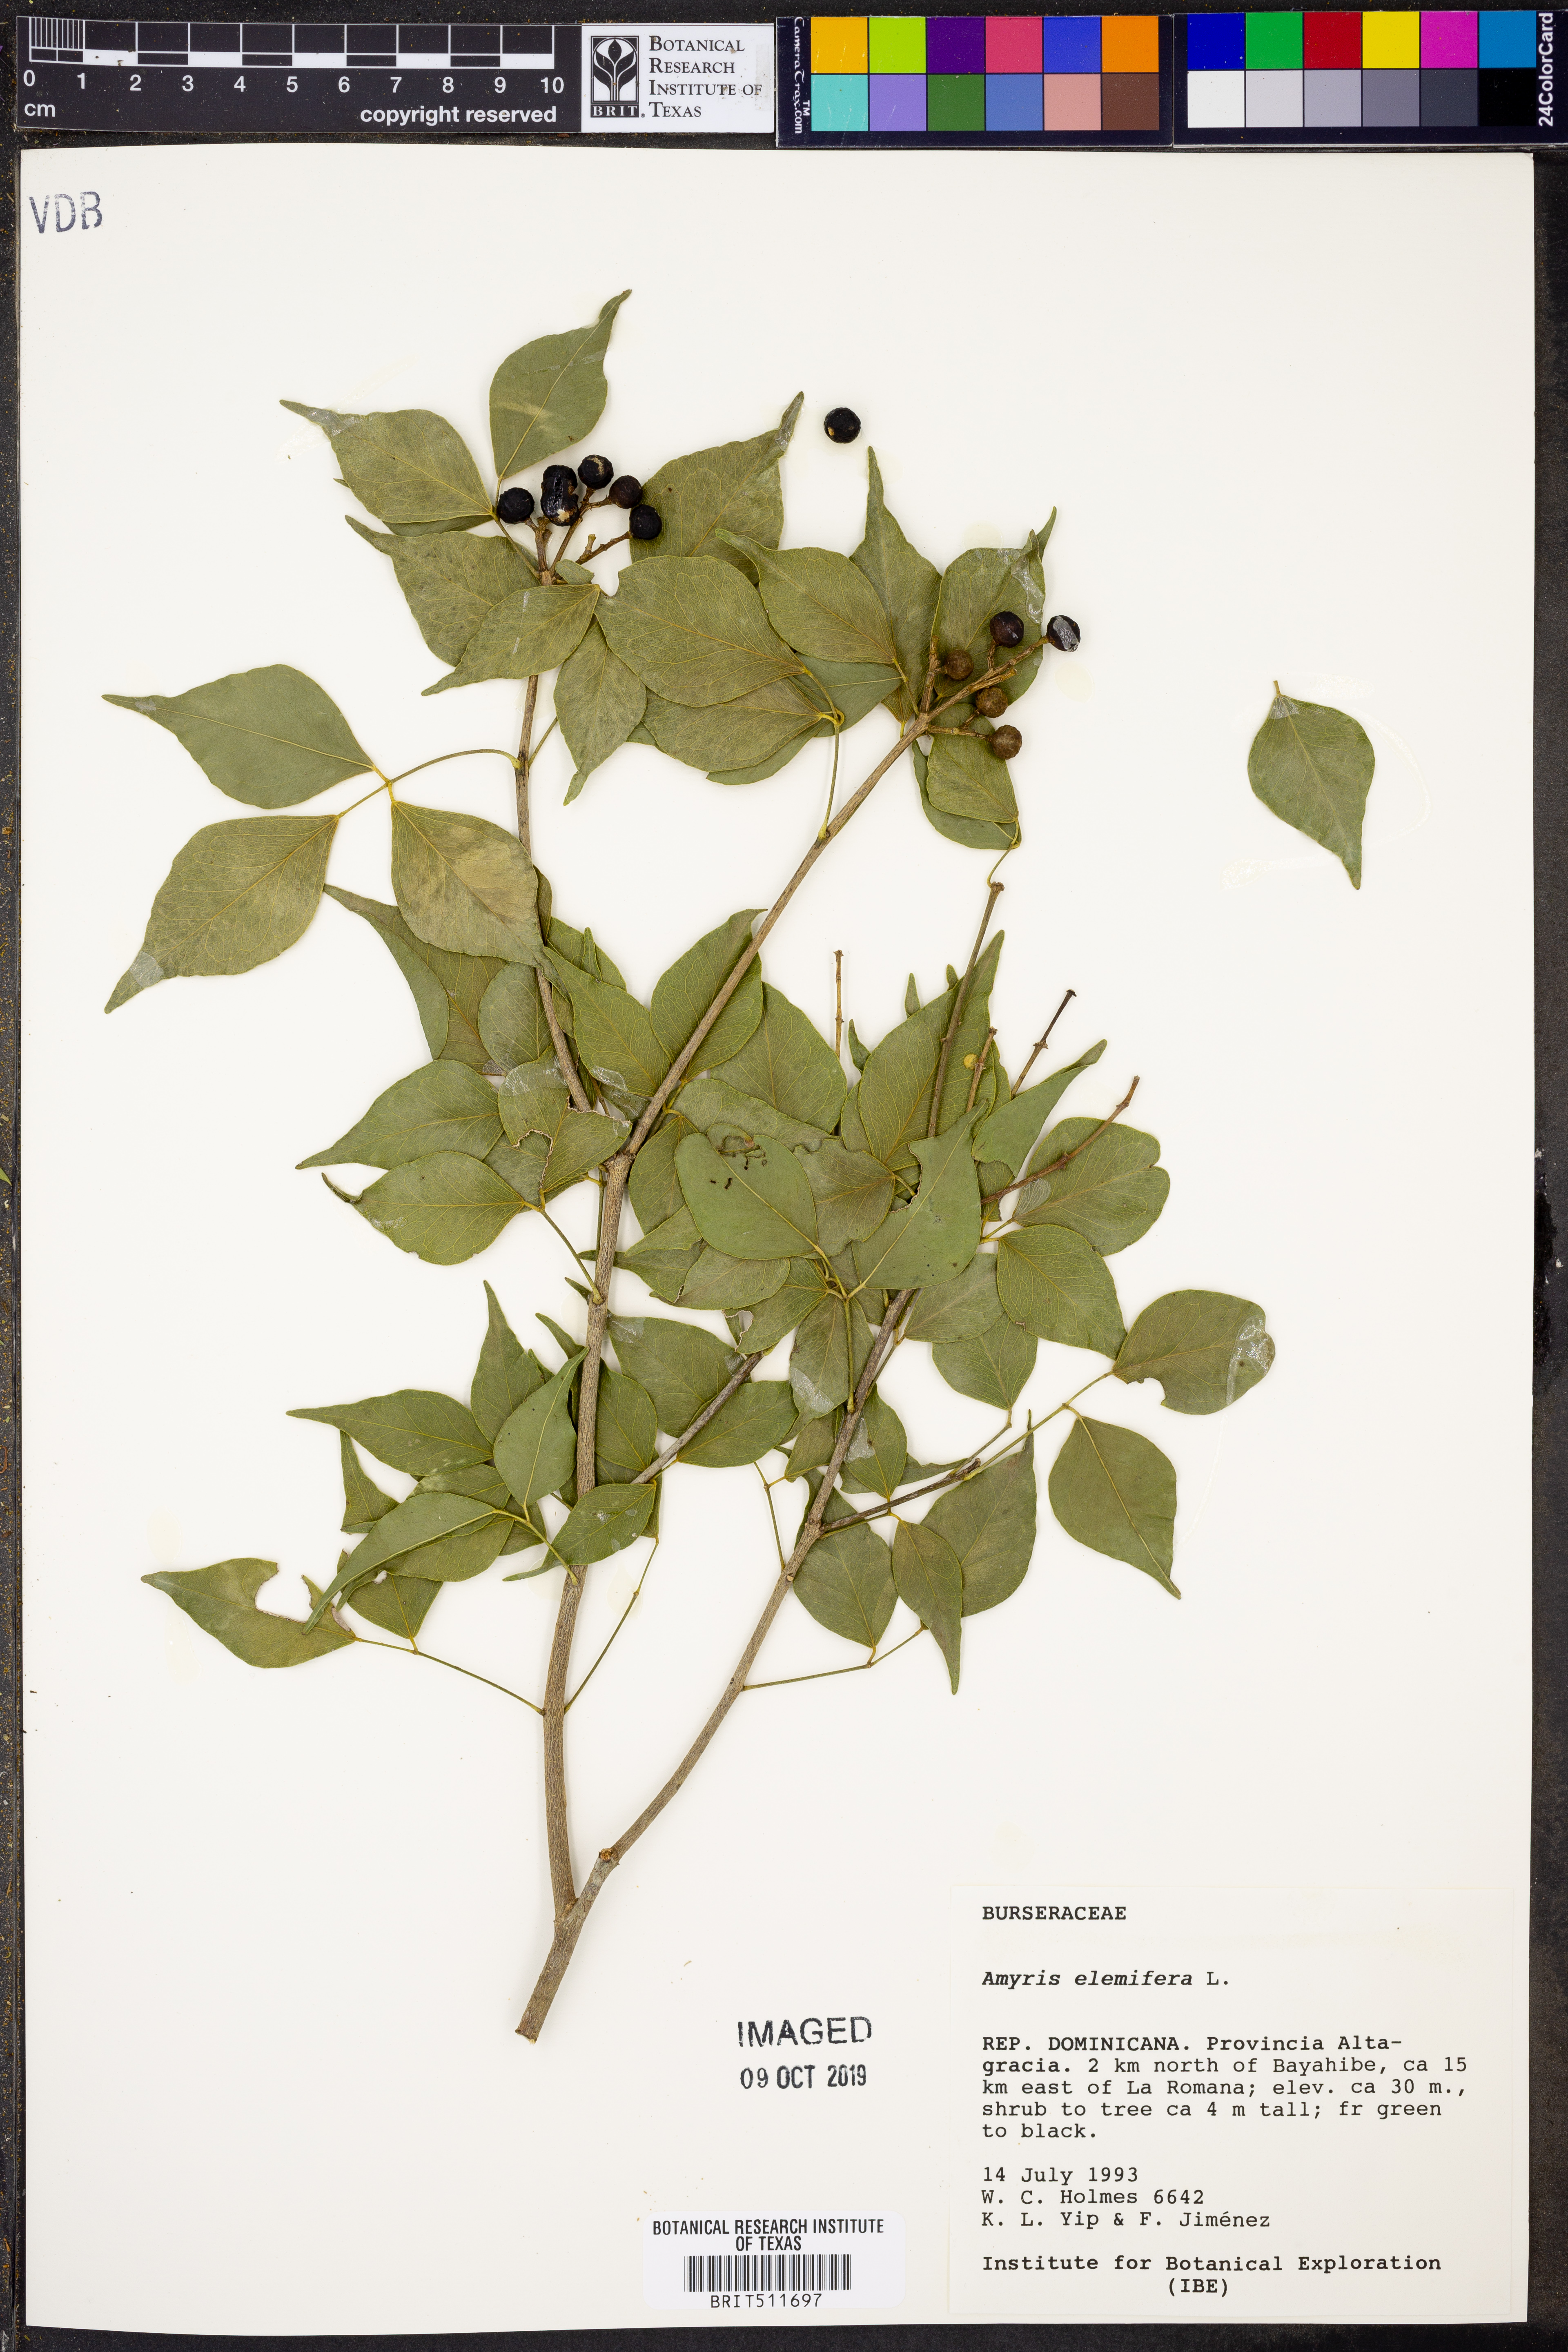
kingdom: Plantae
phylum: Tracheophyta
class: Magnoliopsida
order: Sapindales
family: Rutaceae
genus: Amyris
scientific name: Amyris elemifera
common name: Sea amyris
